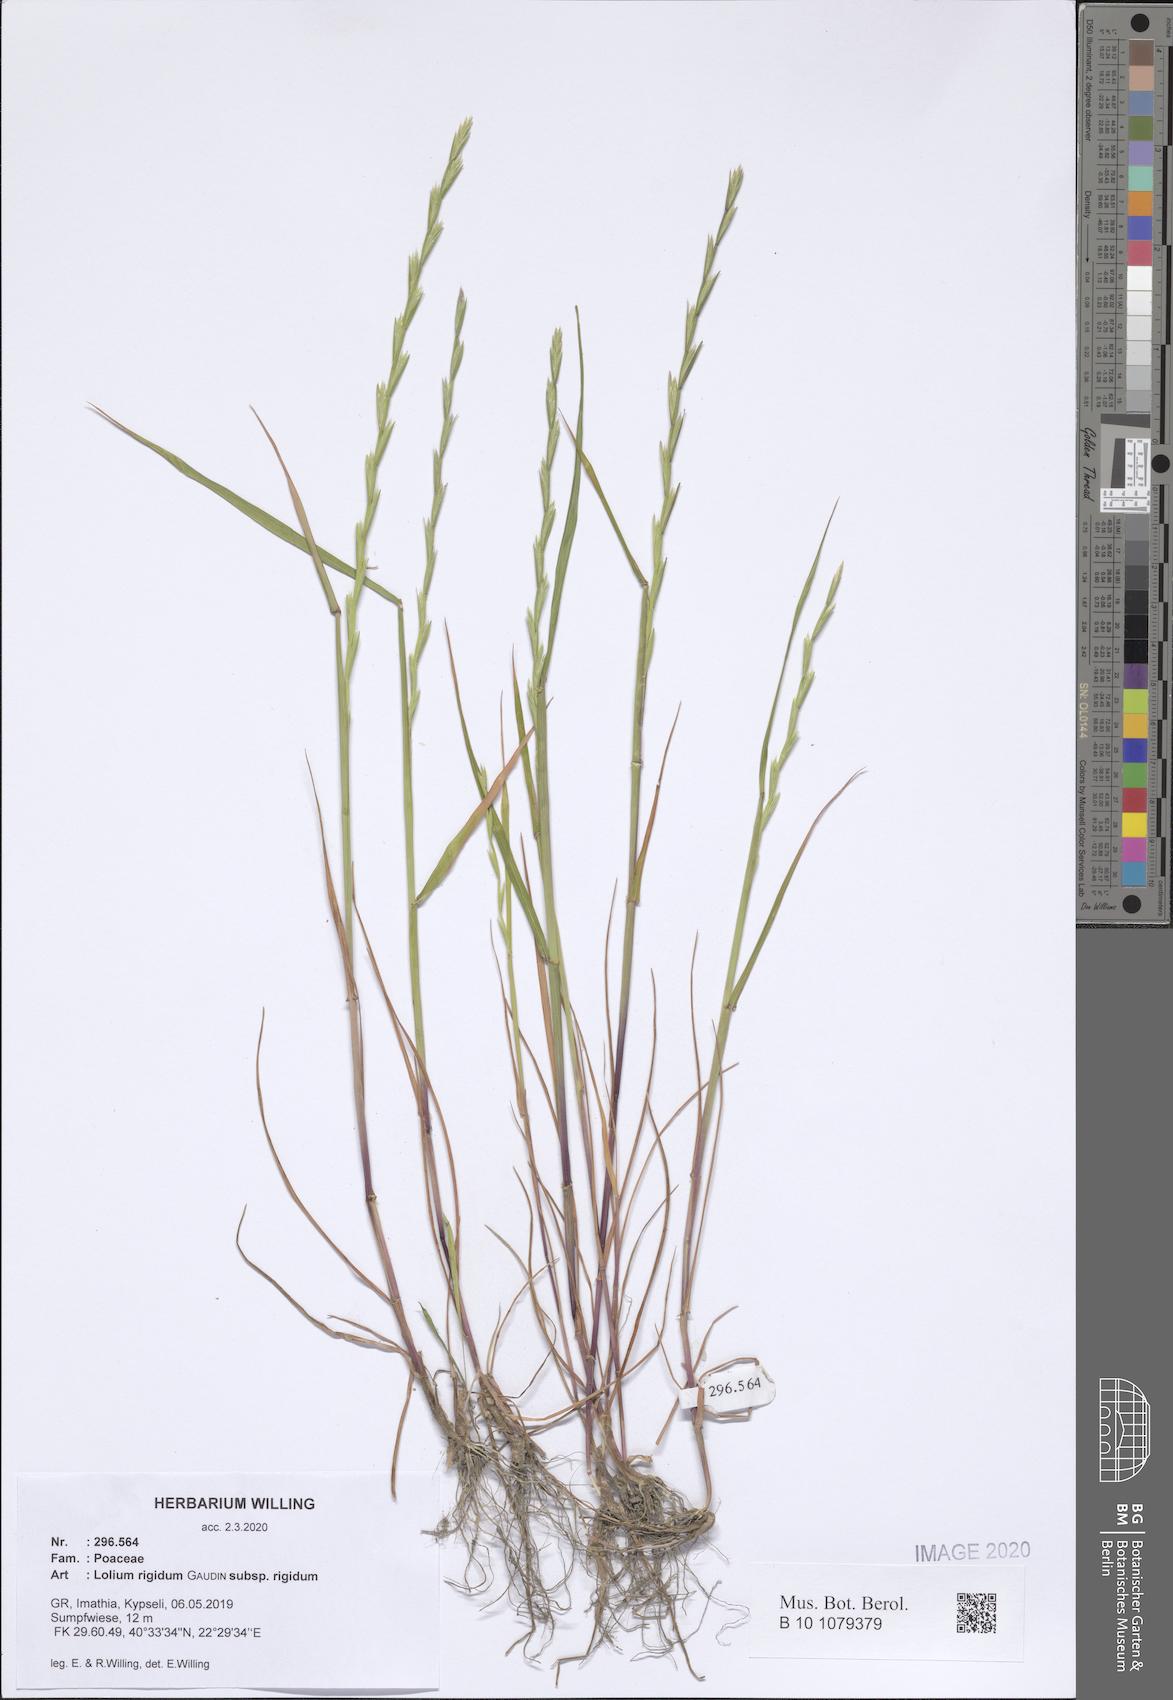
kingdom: Plantae
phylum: Tracheophyta
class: Liliopsida
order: Poales
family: Poaceae
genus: Lolium
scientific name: Lolium rigidum
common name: Wimmera ryegrass
